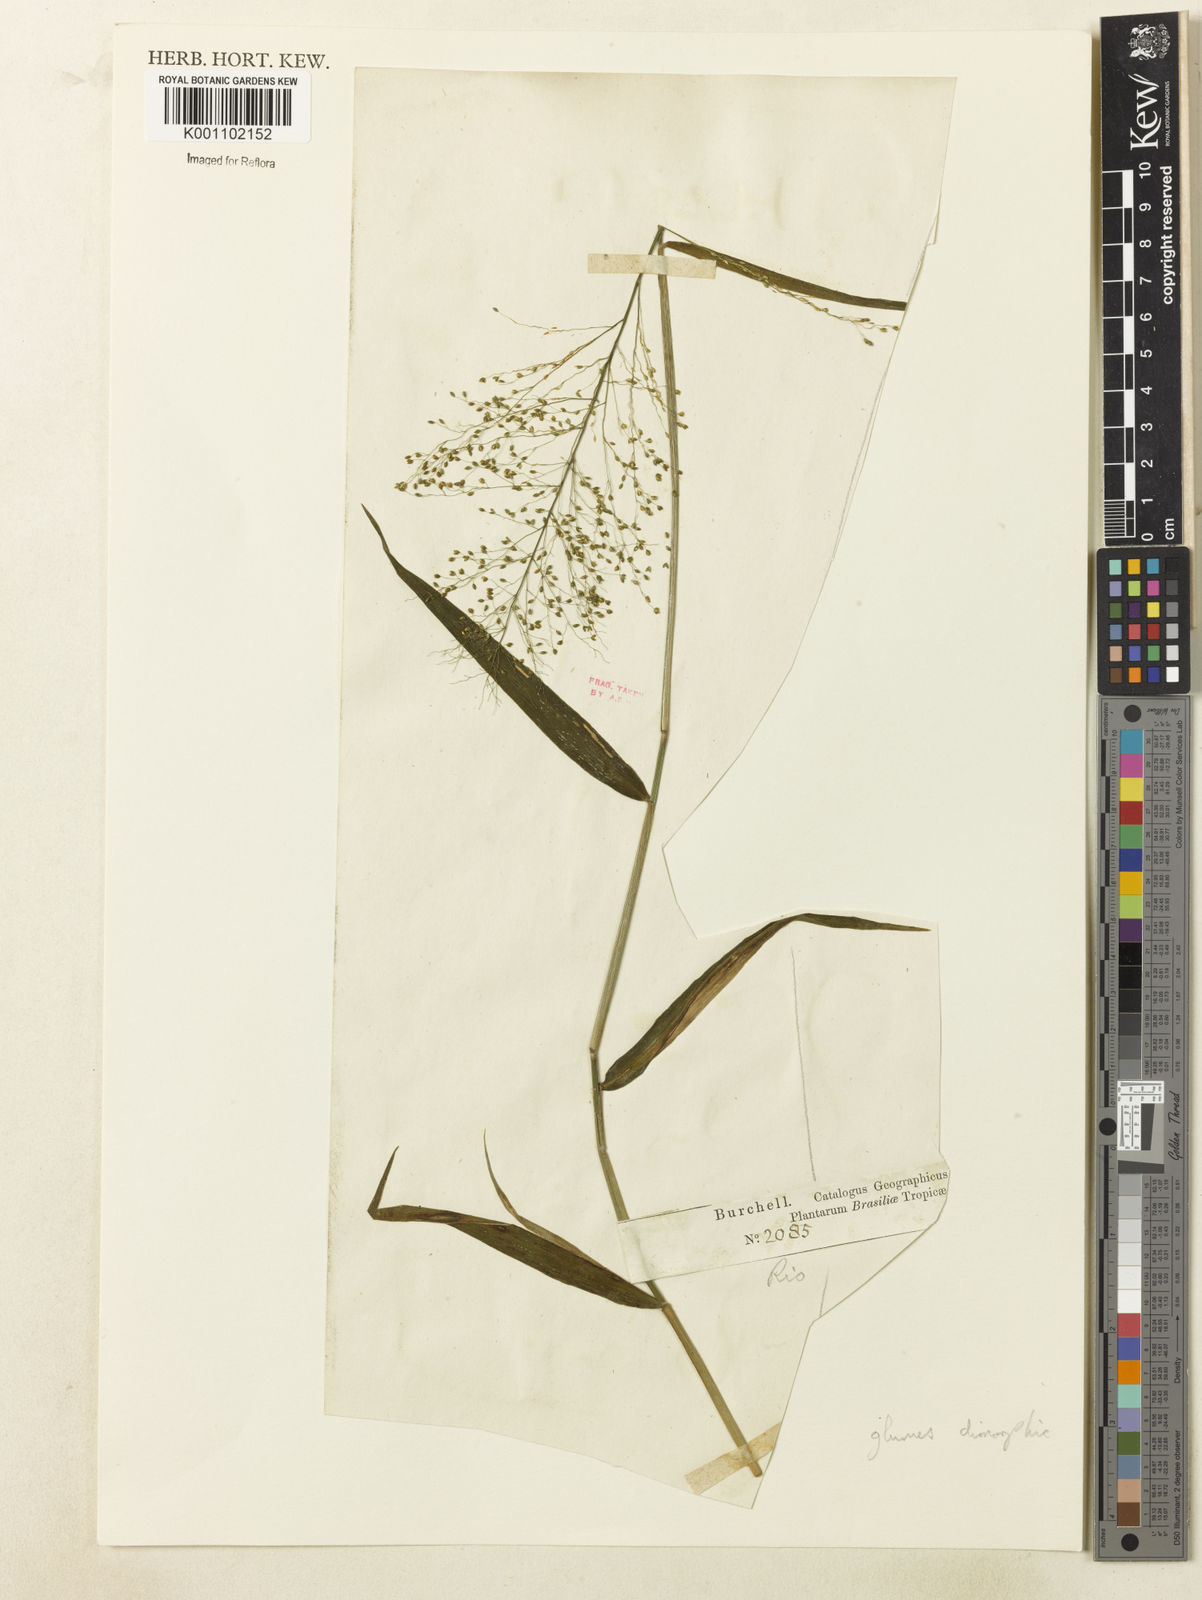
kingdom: Plantae
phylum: Tracheophyta
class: Liliopsida
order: Poales
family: Poaceae
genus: Dichanthelium
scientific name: Dichanthelium hebotes
